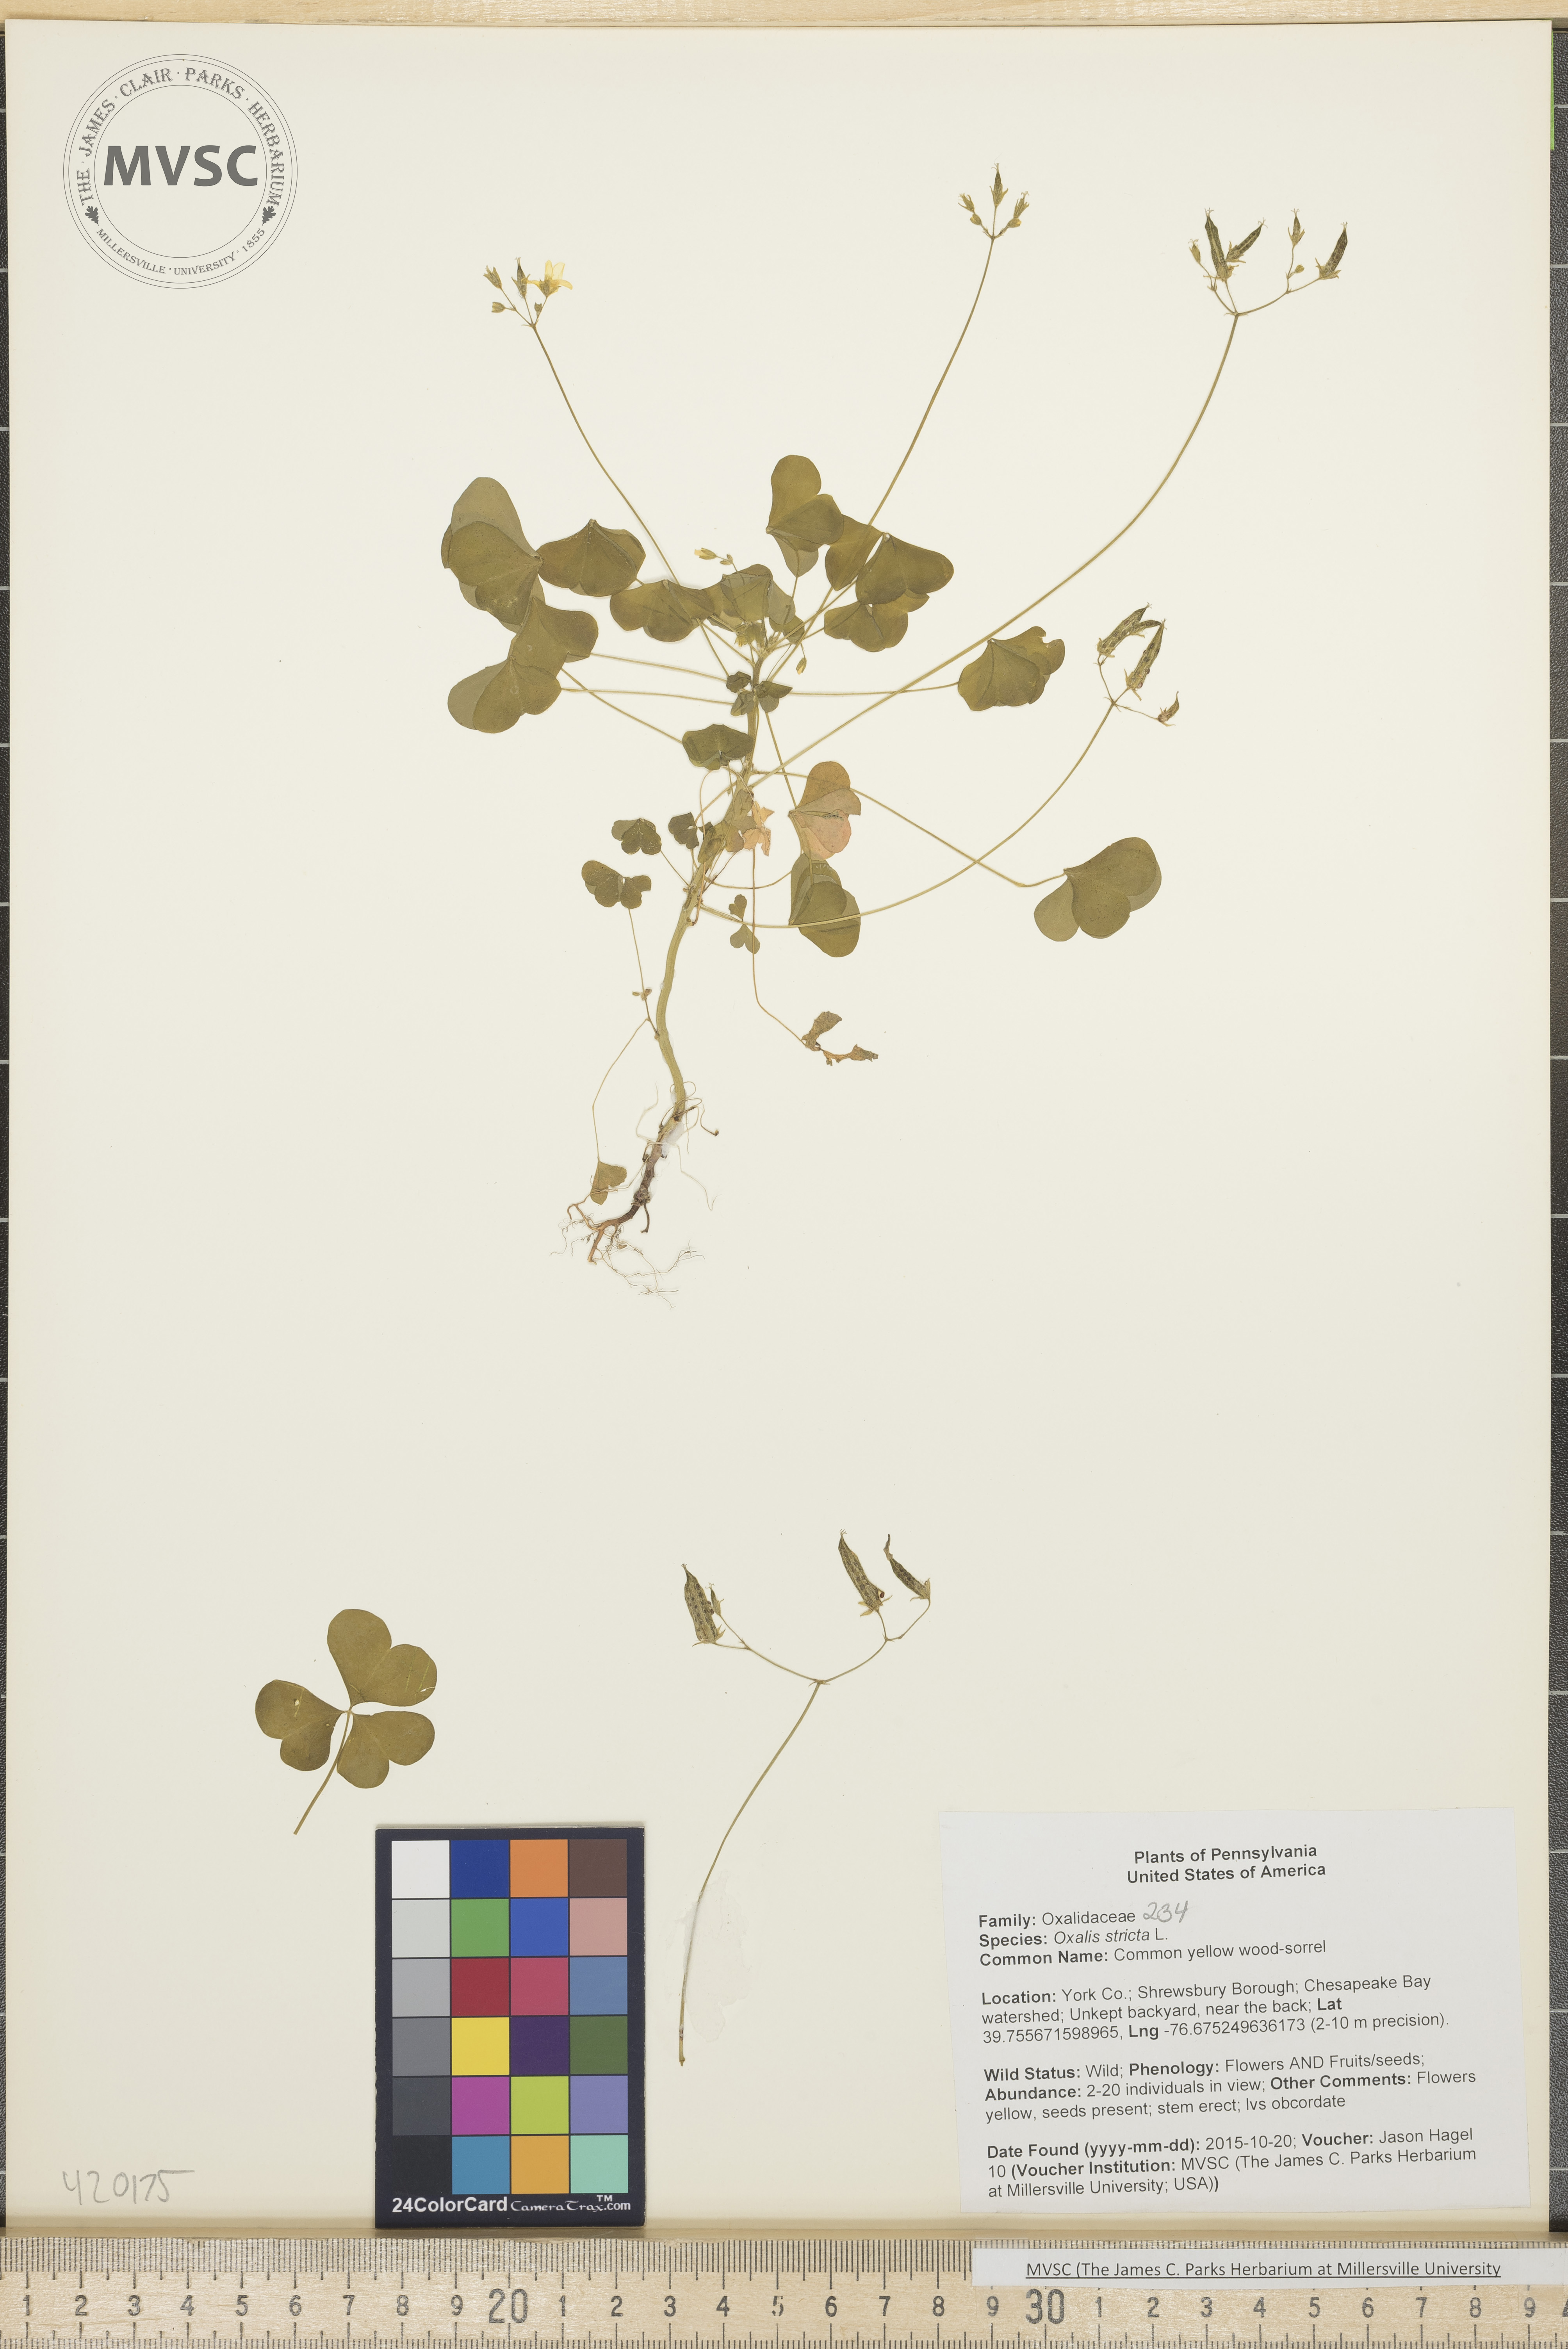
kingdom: Plantae
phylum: Tracheophyta
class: Magnoliopsida
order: Oxalidales
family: Oxalidaceae
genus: Oxalis
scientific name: Oxalis stricta
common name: Common yellow wood-sorrel
